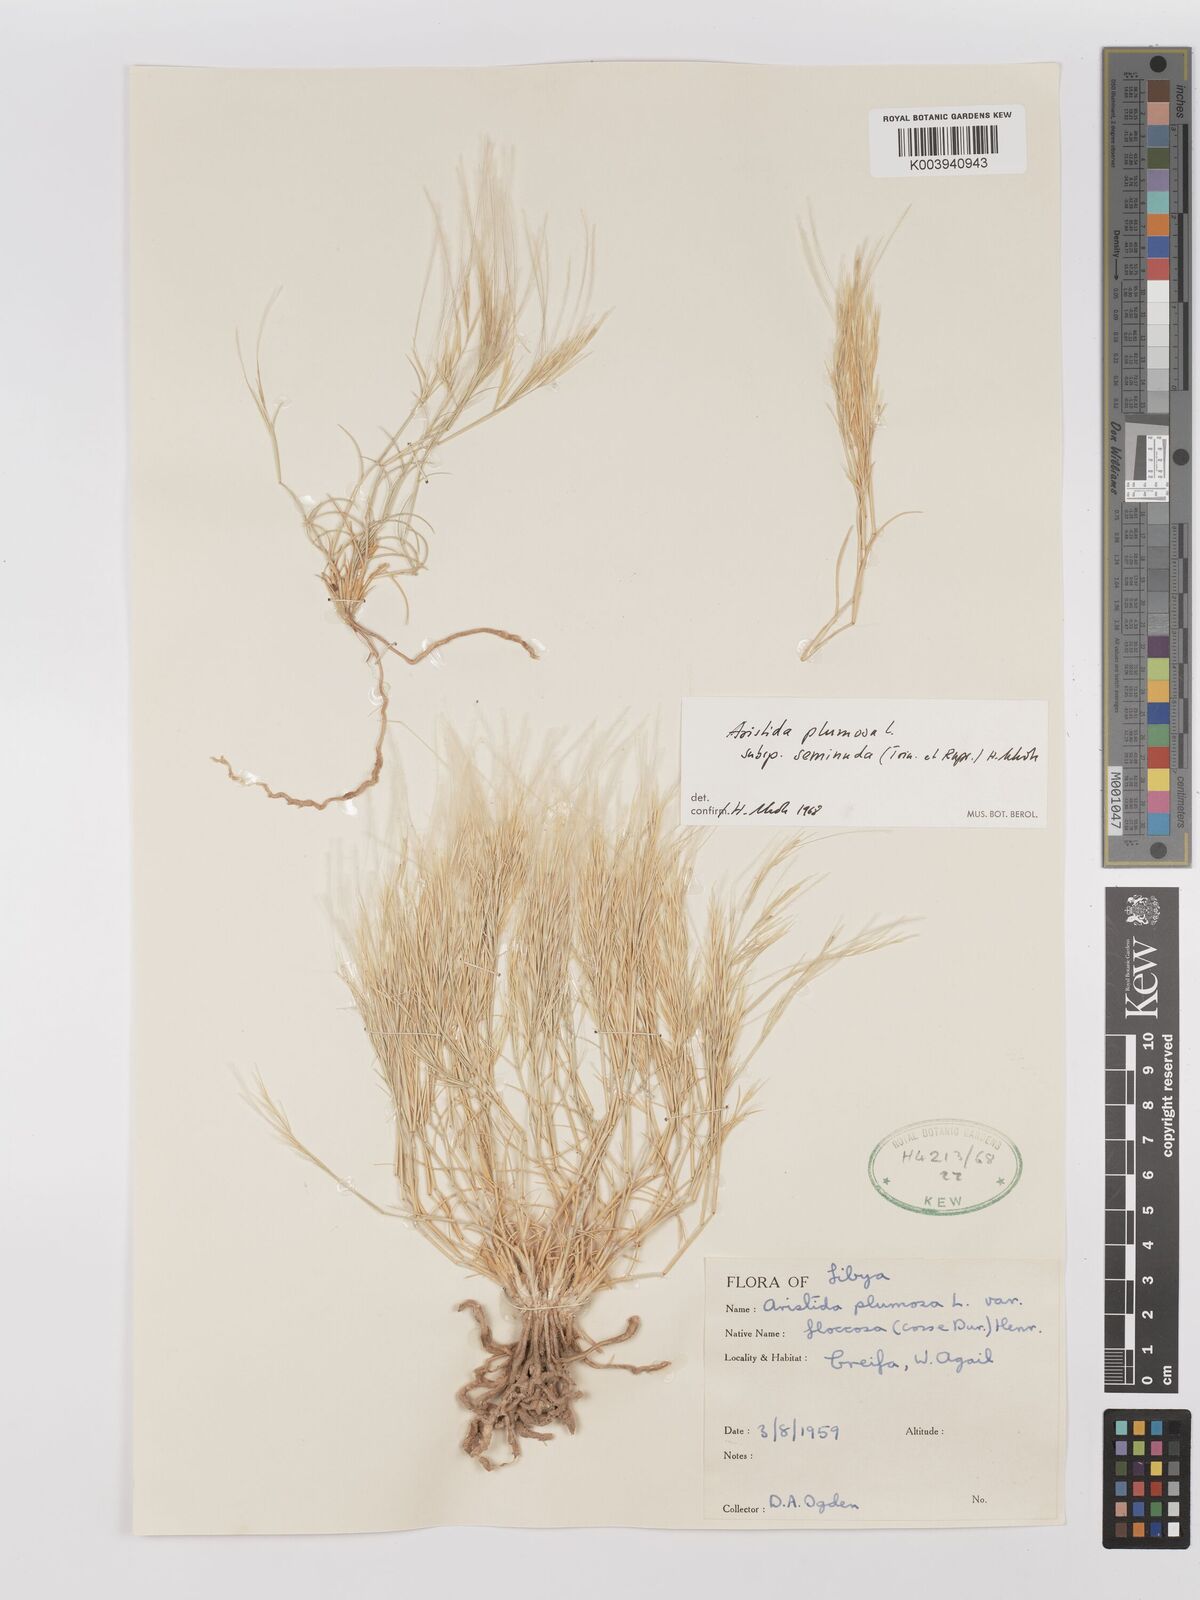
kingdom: Plantae
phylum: Tracheophyta
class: Liliopsida
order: Poales
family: Poaceae
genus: Stipagrostis
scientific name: Stipagrostis plumosa
